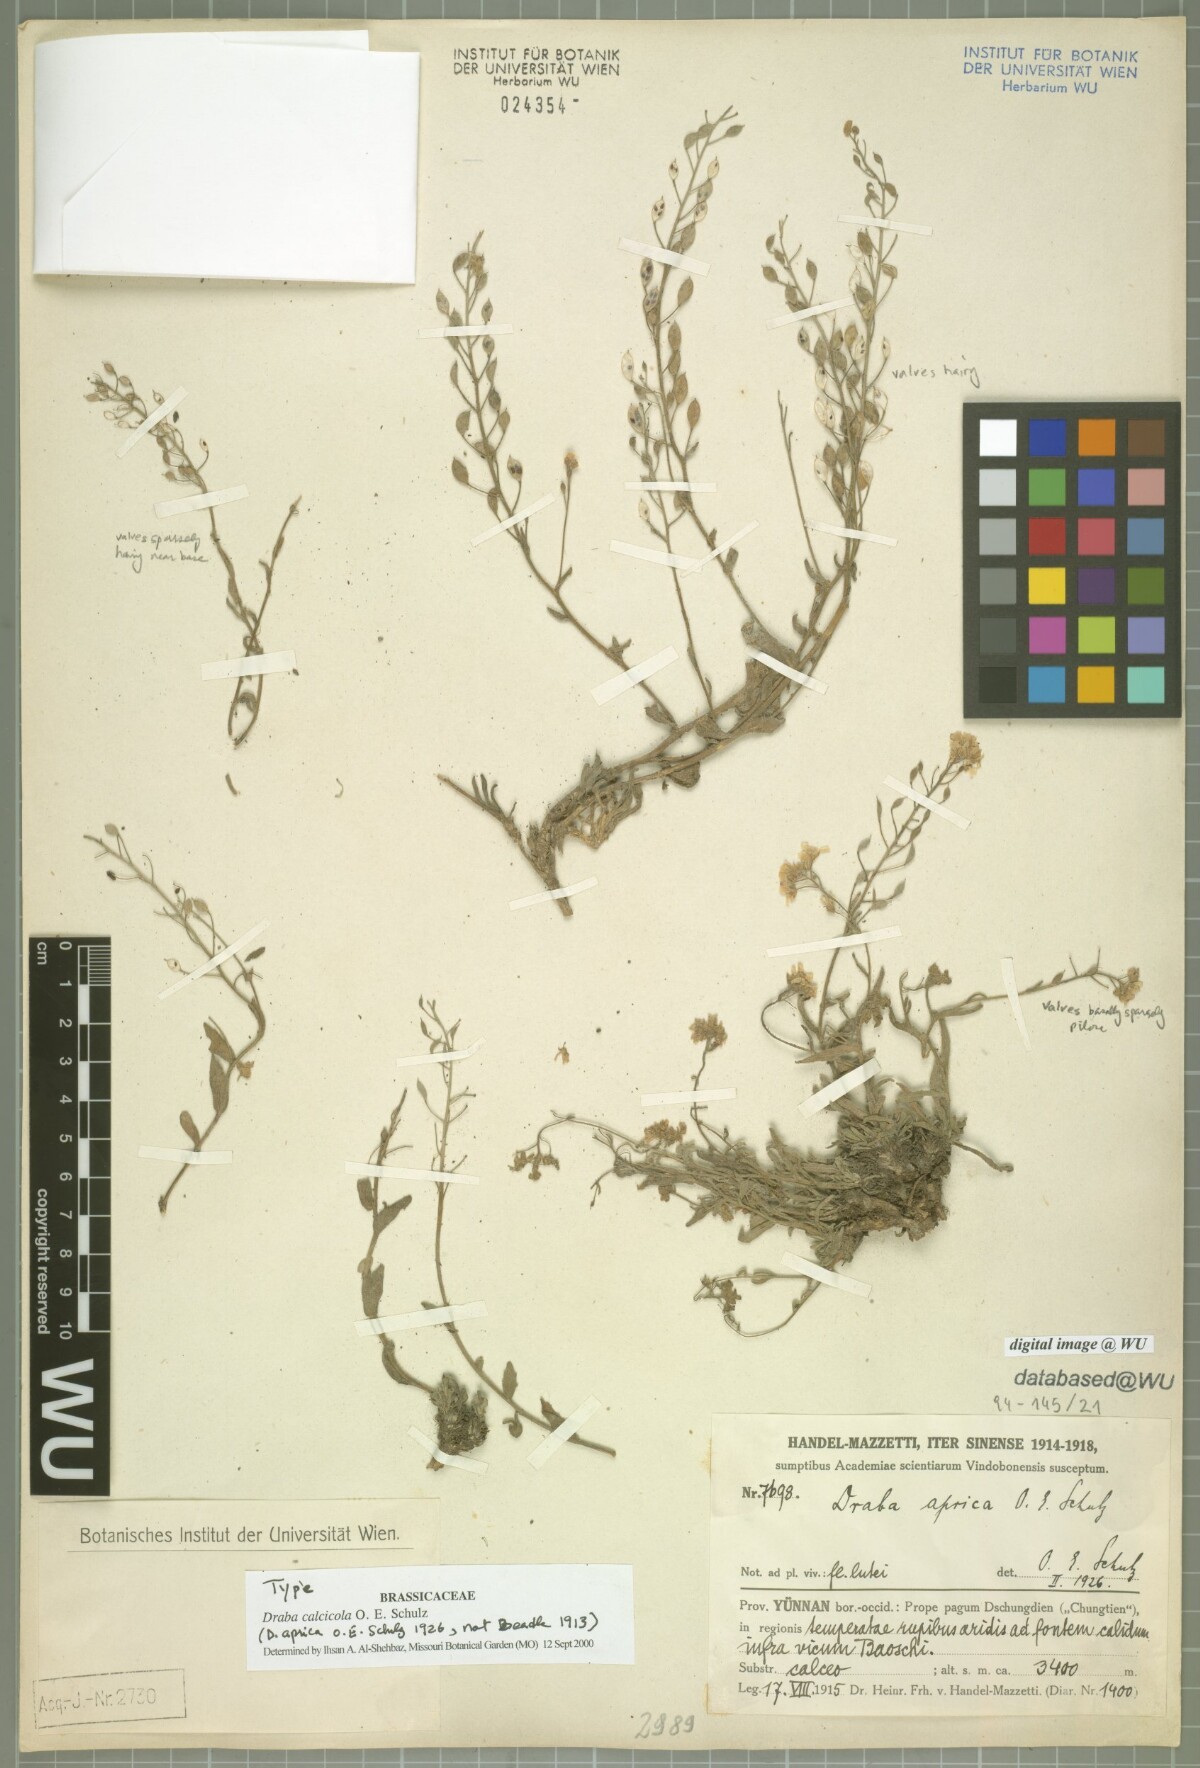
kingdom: Plantae
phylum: Tracheophyta
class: Magnoliopsida
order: Brassicales
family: Brassicaceae
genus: Draba
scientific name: Draba calcicola
